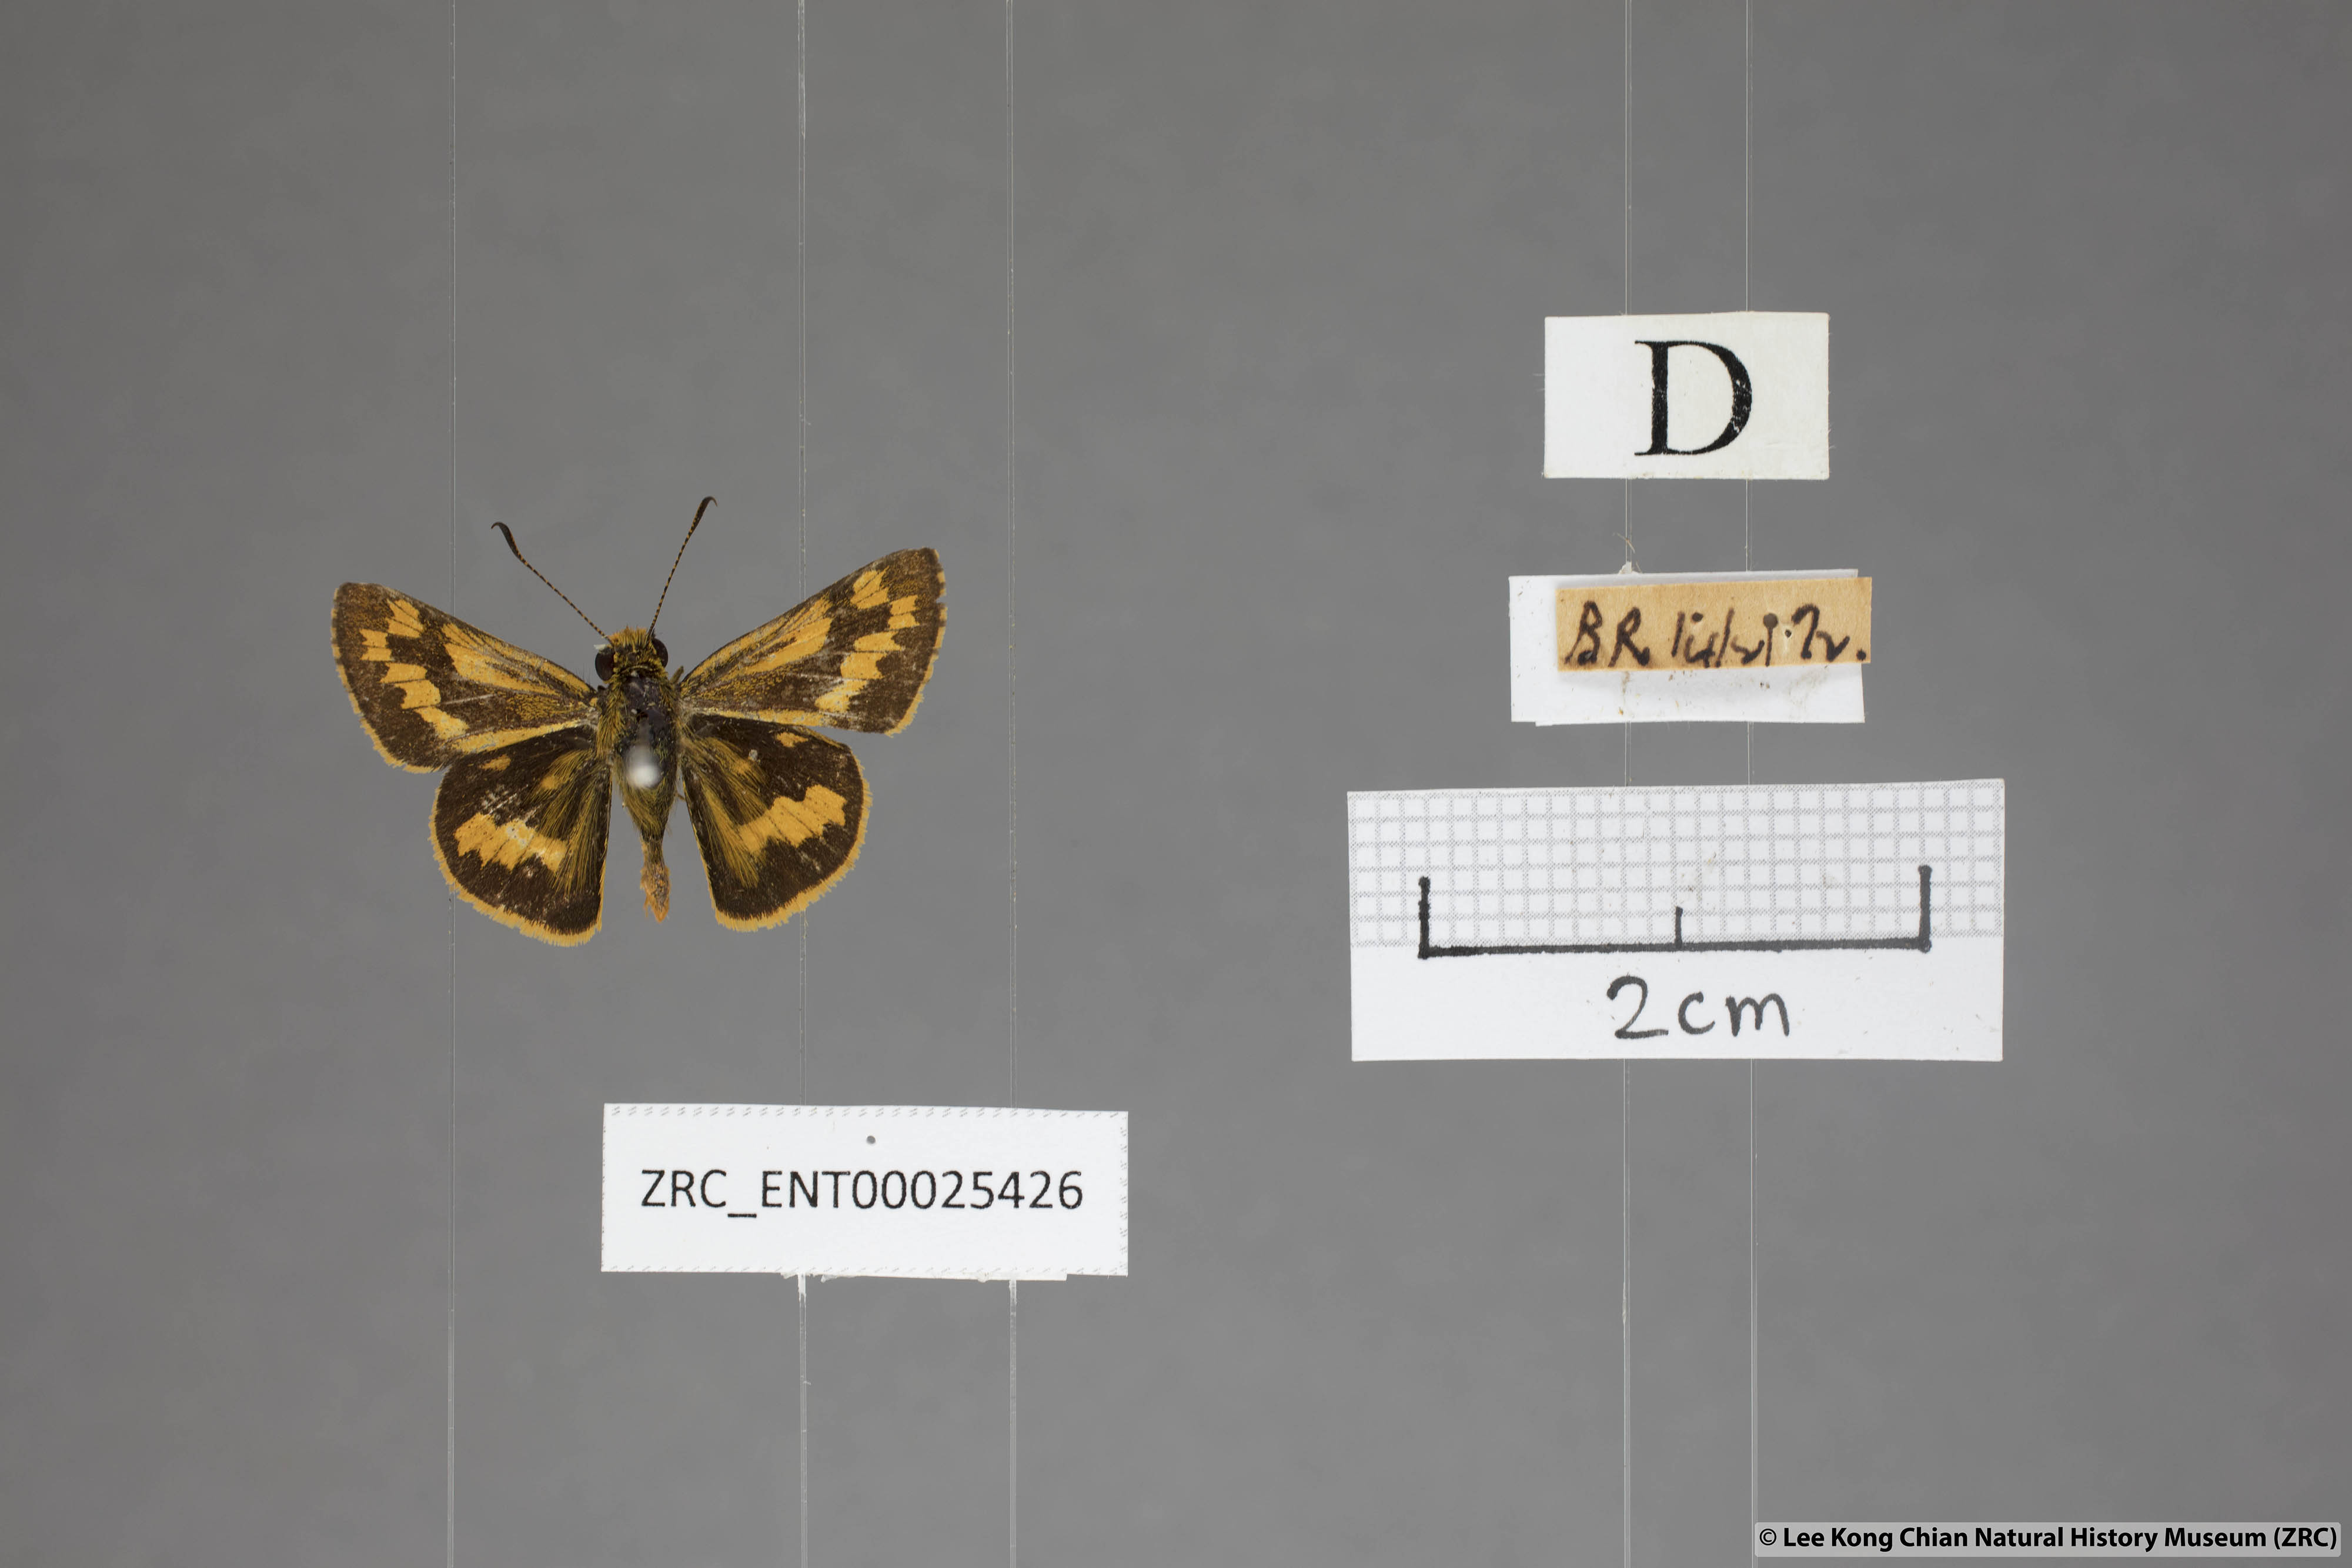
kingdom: Animalia
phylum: Arthropoda
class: Insecta
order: Lepidoptera
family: Hesperiidae
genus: Potanthus
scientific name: Potanthus omaha
